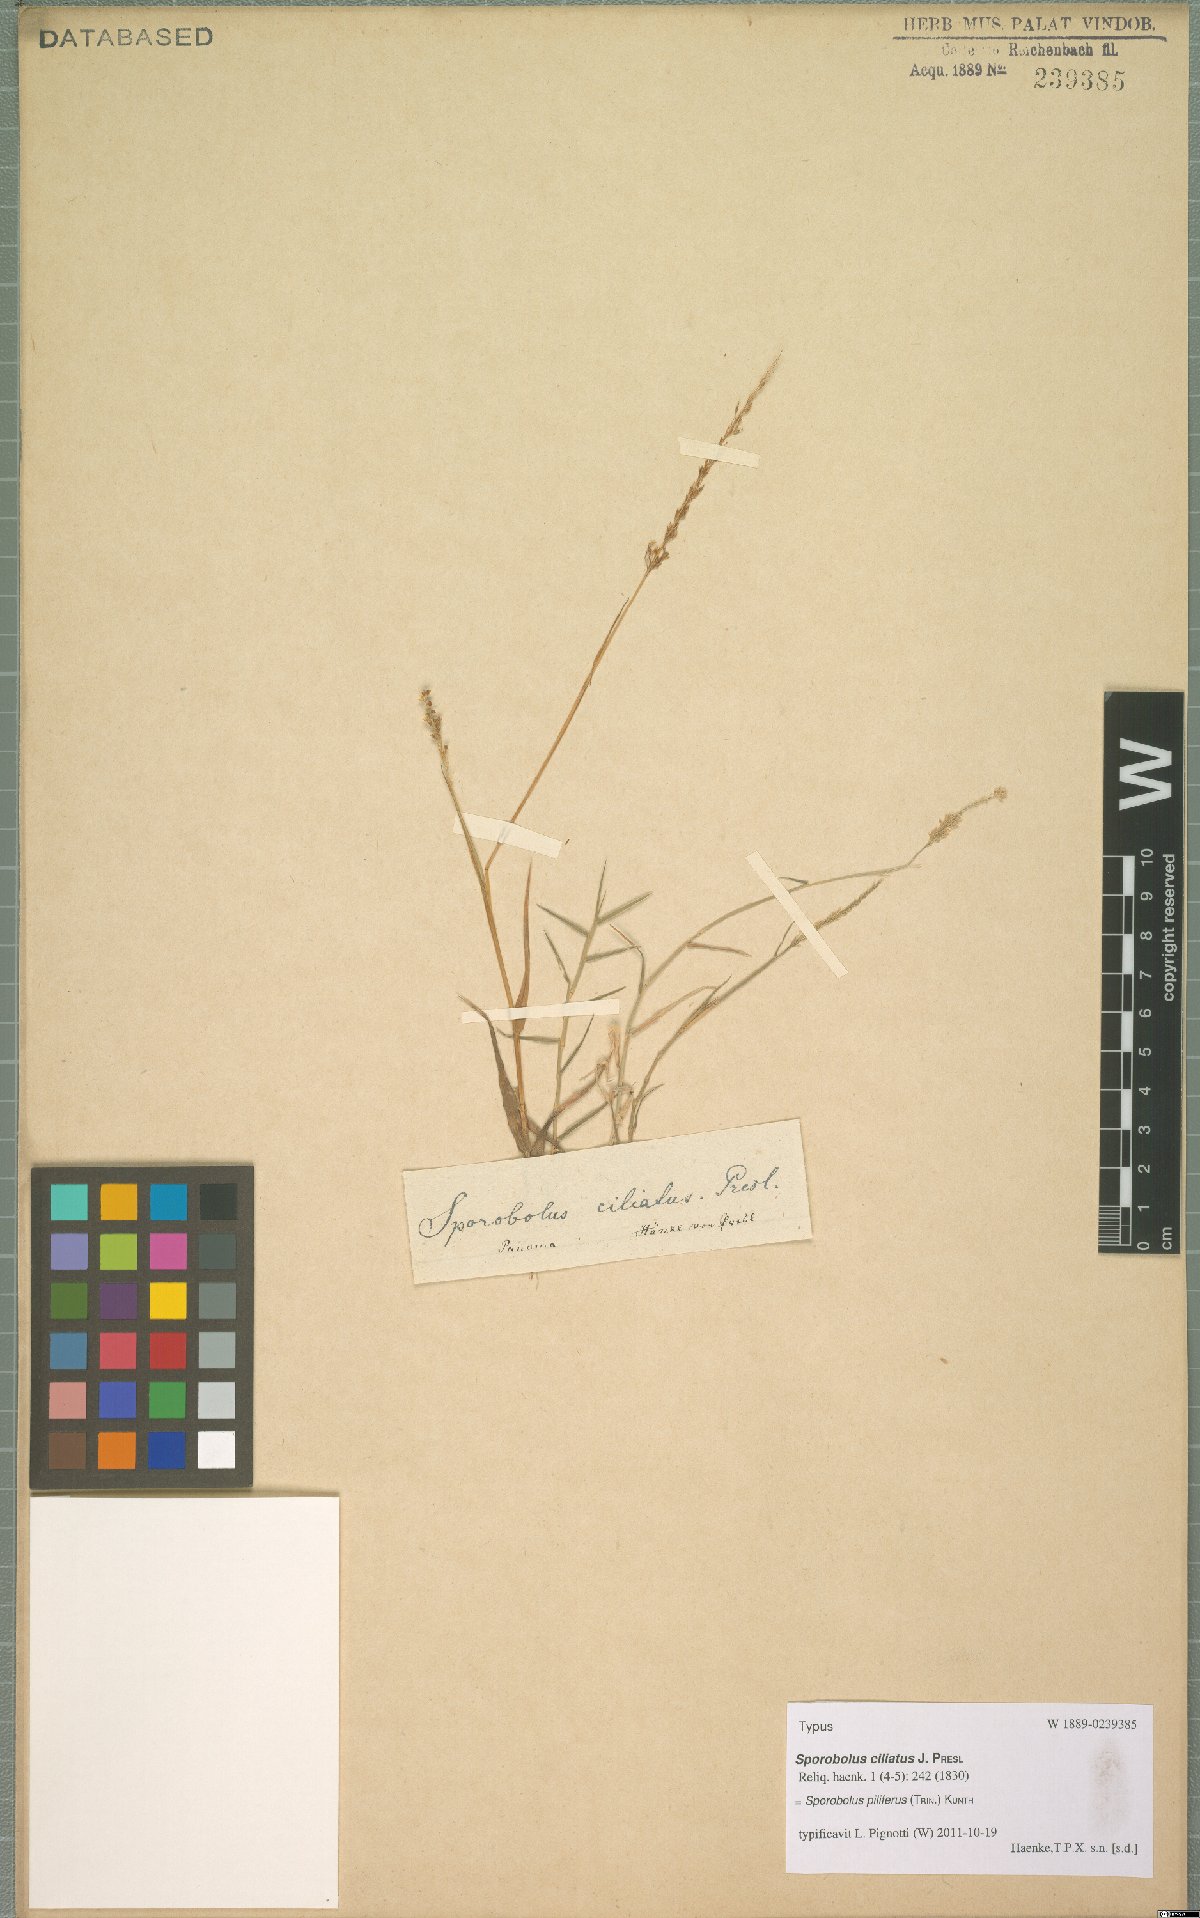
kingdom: Plantae
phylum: Tracheophyta
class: Liliopsida
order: Poales
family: Poaceae
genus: Sporobolus
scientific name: Sporobolus pilifer
